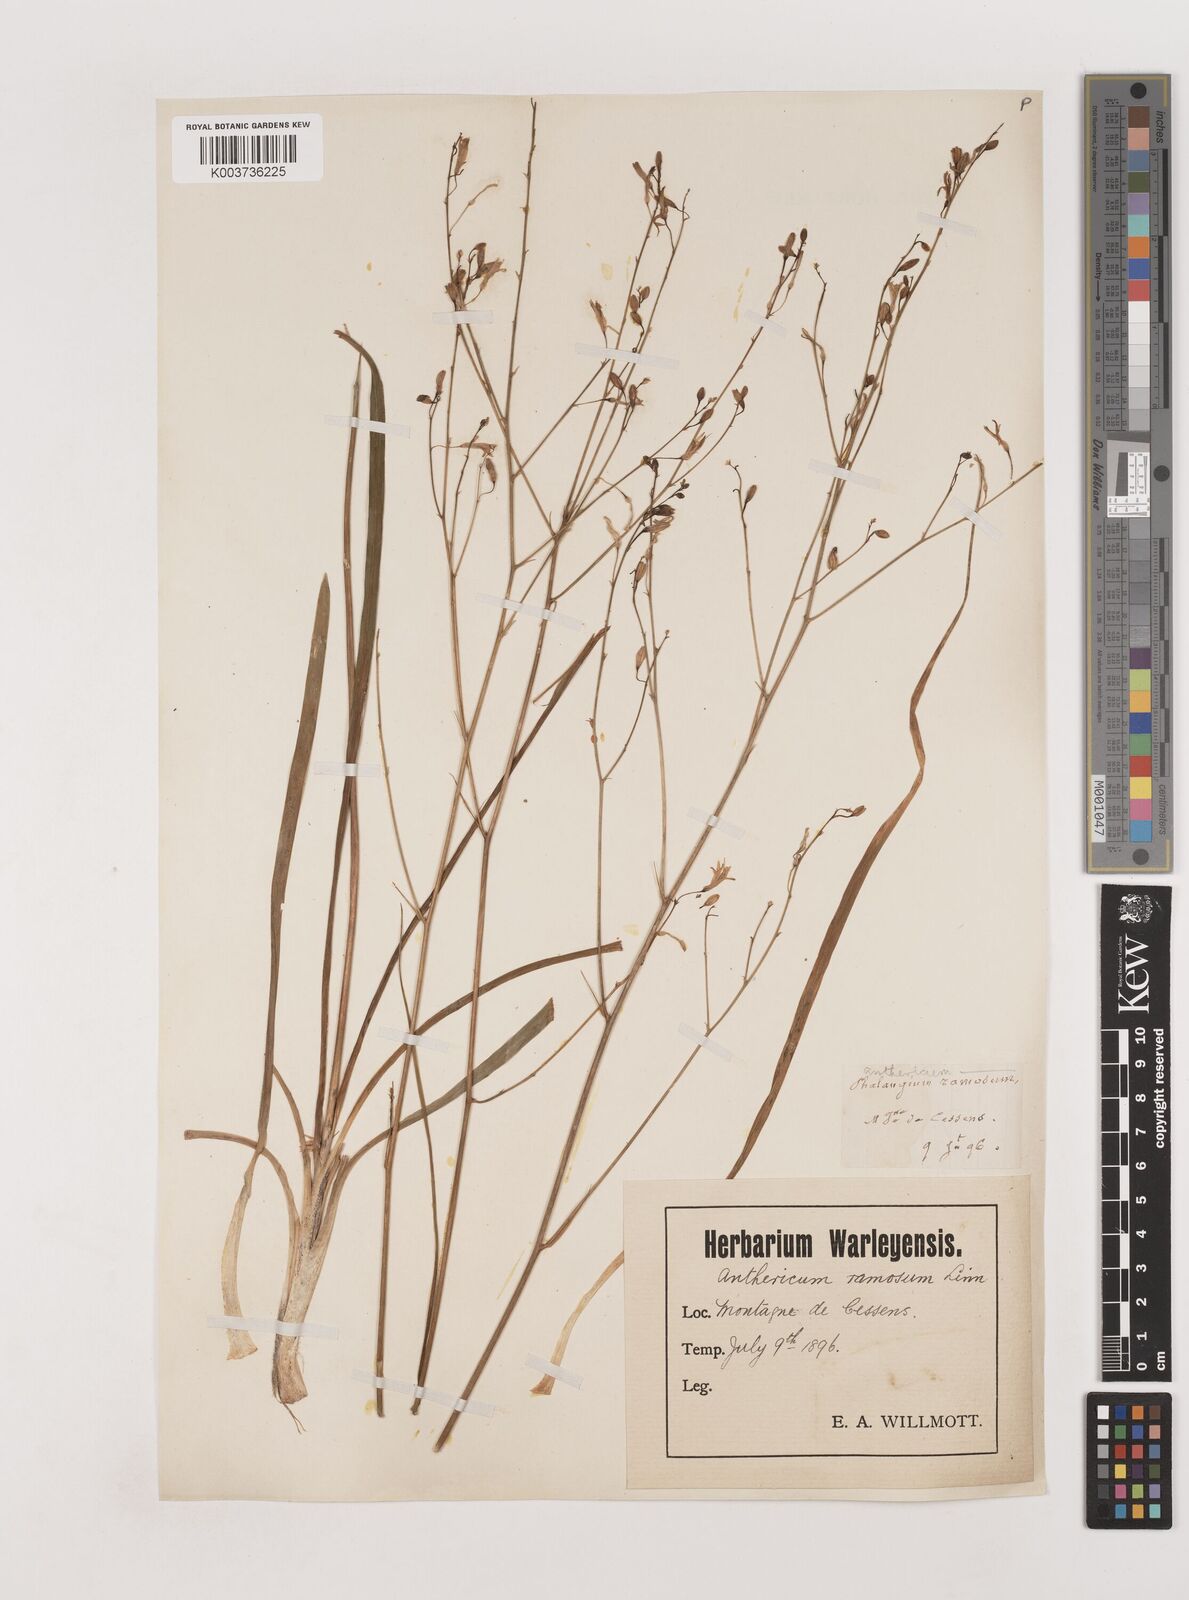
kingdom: Plantae
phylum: Tracheophyta
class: Liliopsida
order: Asparagales
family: Asparagaceae
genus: Anthericum
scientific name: Anthericum ramosum
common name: Branched st. bernard's-lily
